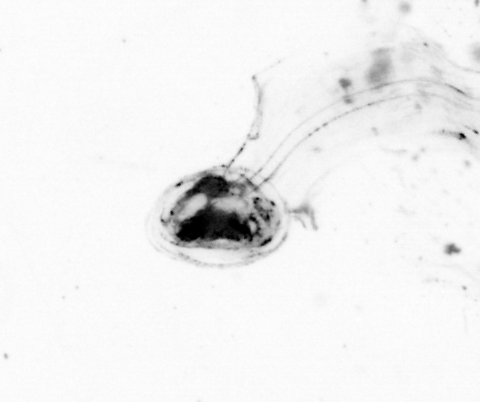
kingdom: Animalia
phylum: Cnidaria
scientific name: Cnidaria
